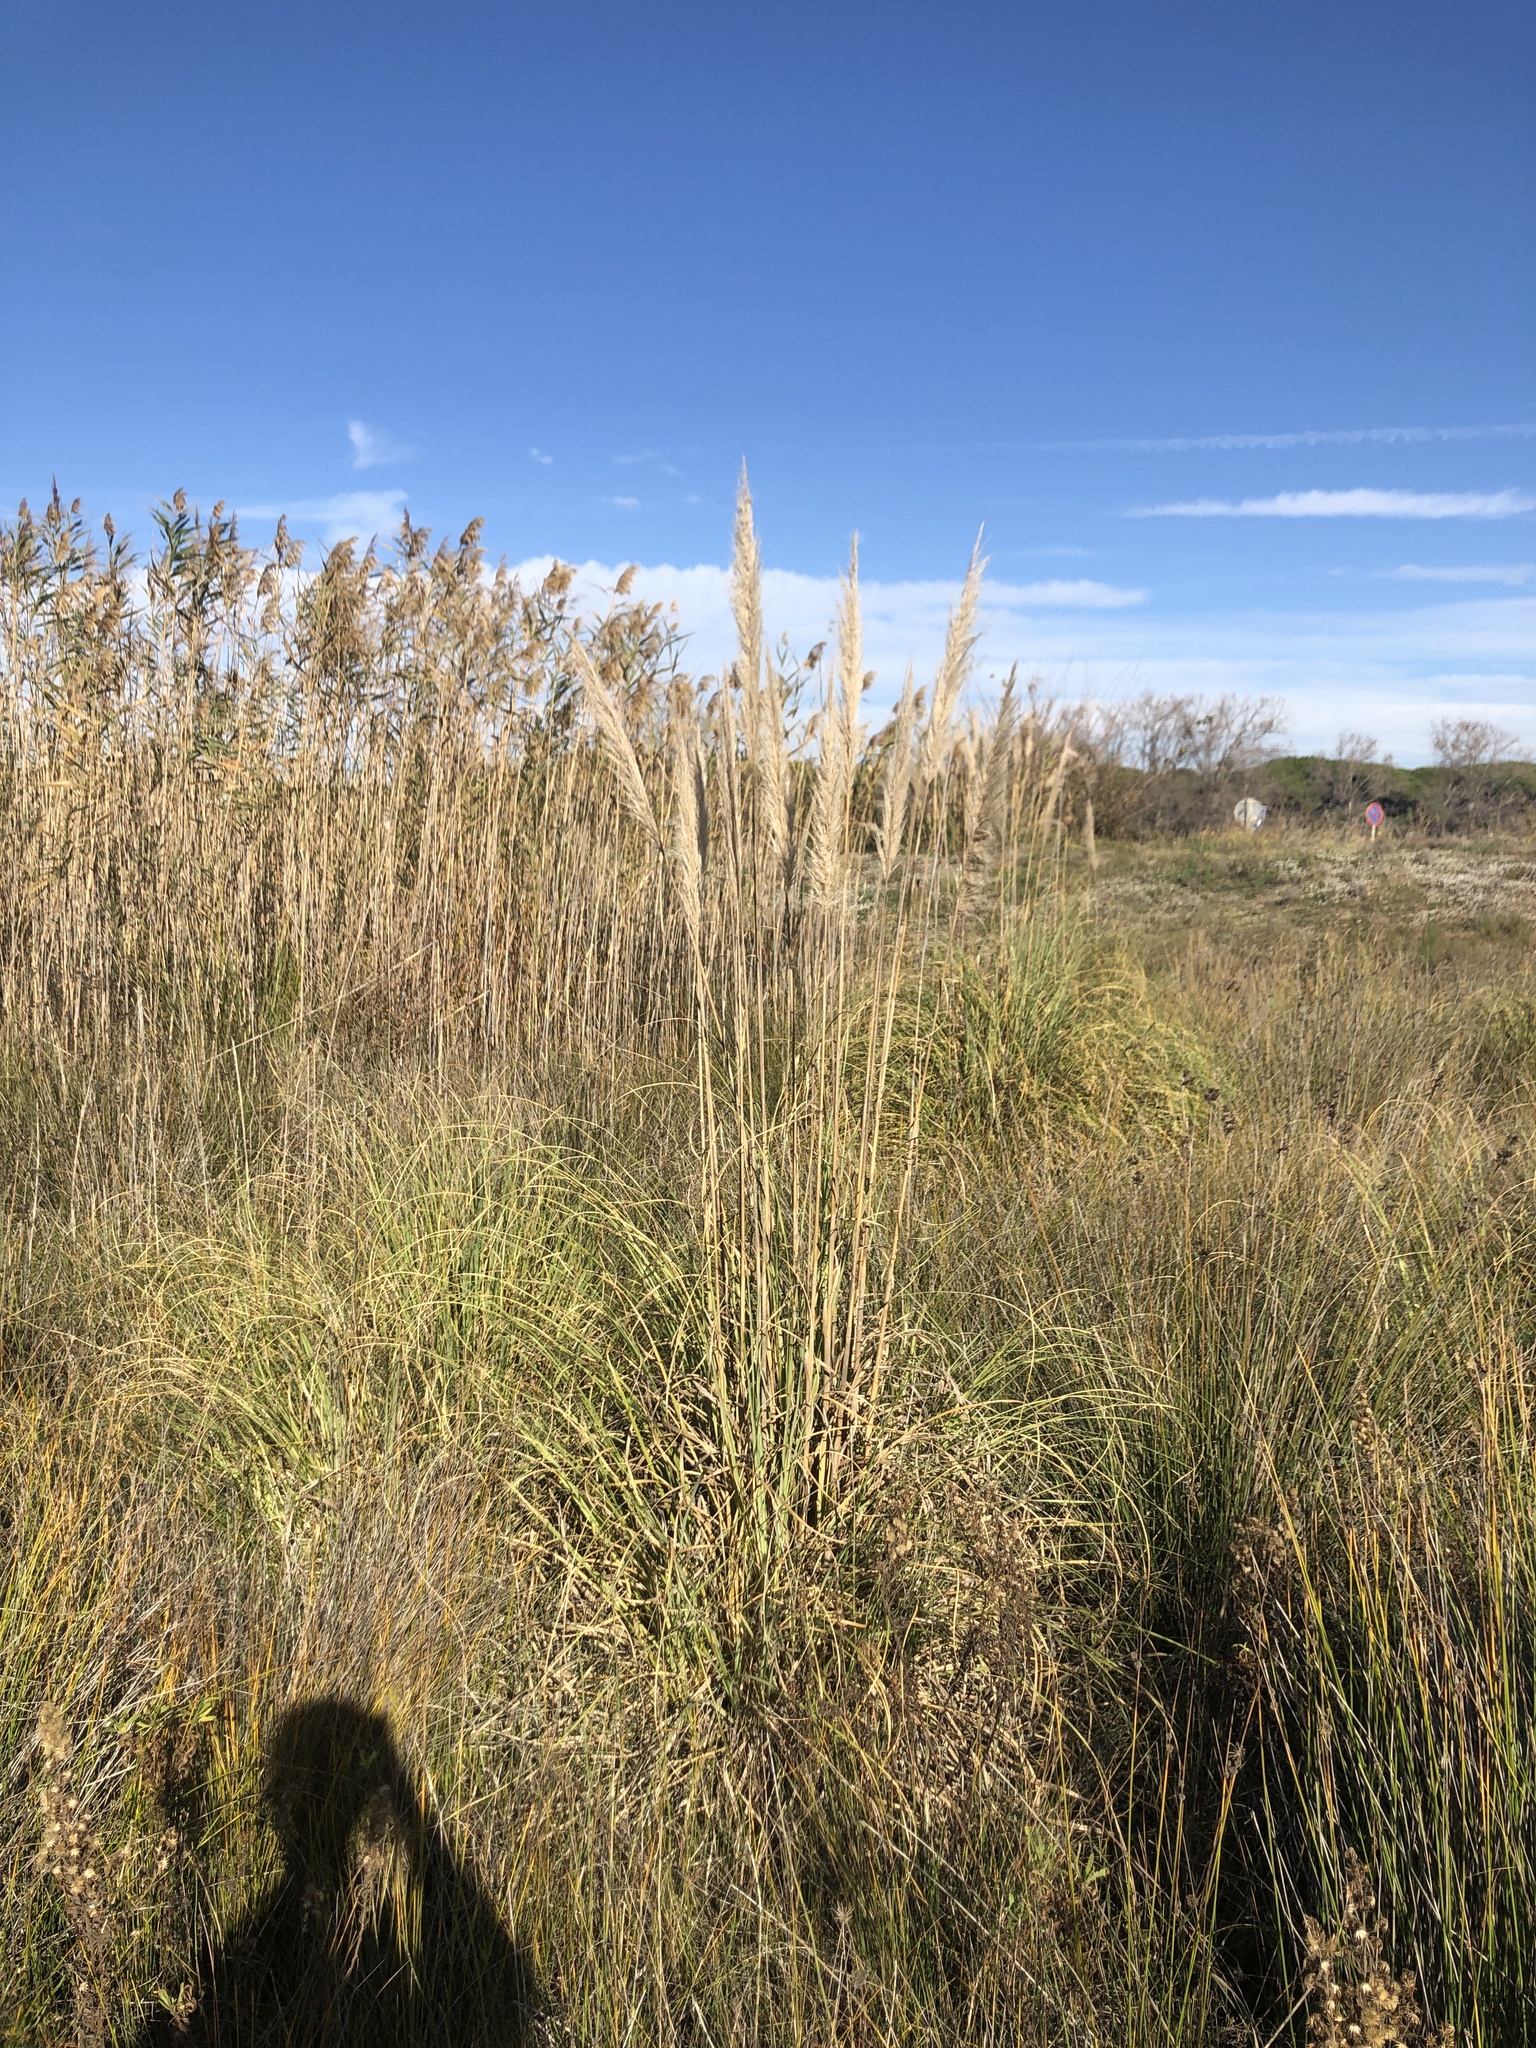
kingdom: Plantae
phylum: Tracheophyta
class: Liliopsida
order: Poales
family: Poaceae
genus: Cortaderia
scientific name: Cortaderia selloana
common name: Uruguayan pampas grass
